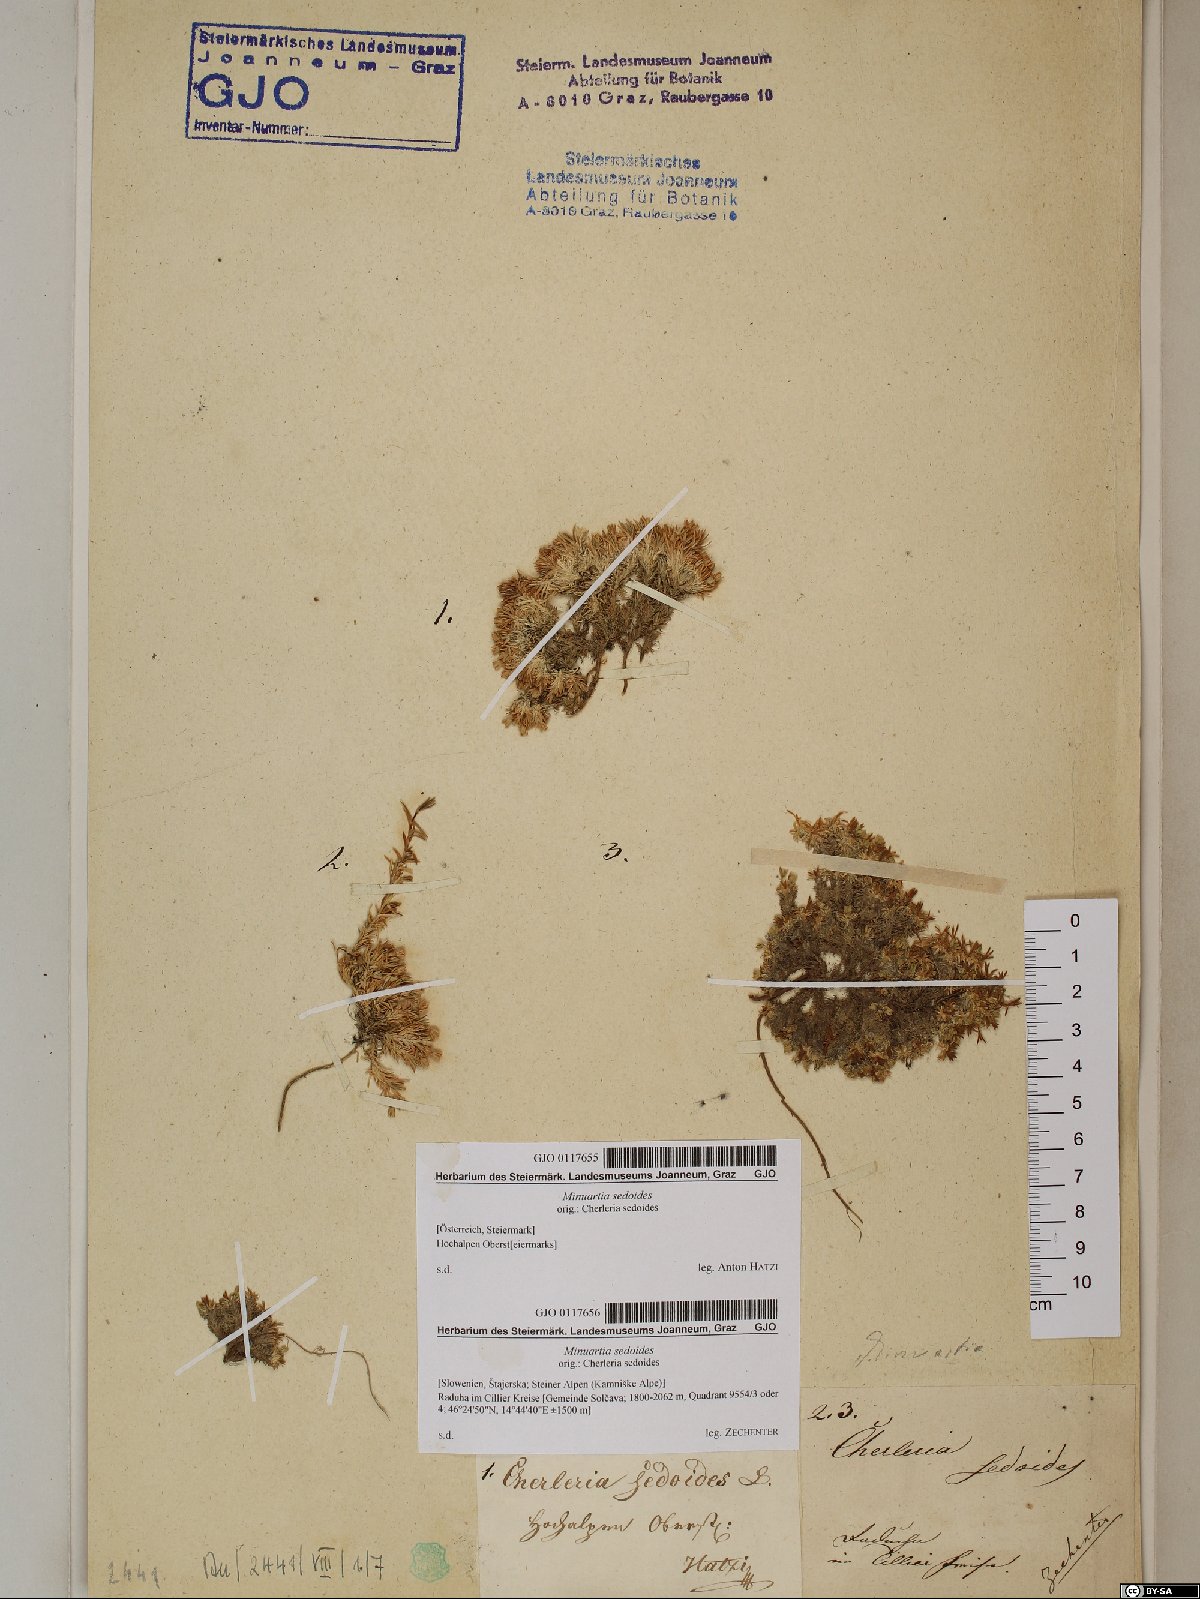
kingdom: Plantae
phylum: Tracheophyta
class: Magnoliopsida
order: Caryophyllales
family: Caryophyllaceae
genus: Cherleria
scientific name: Cherleria sedoides
